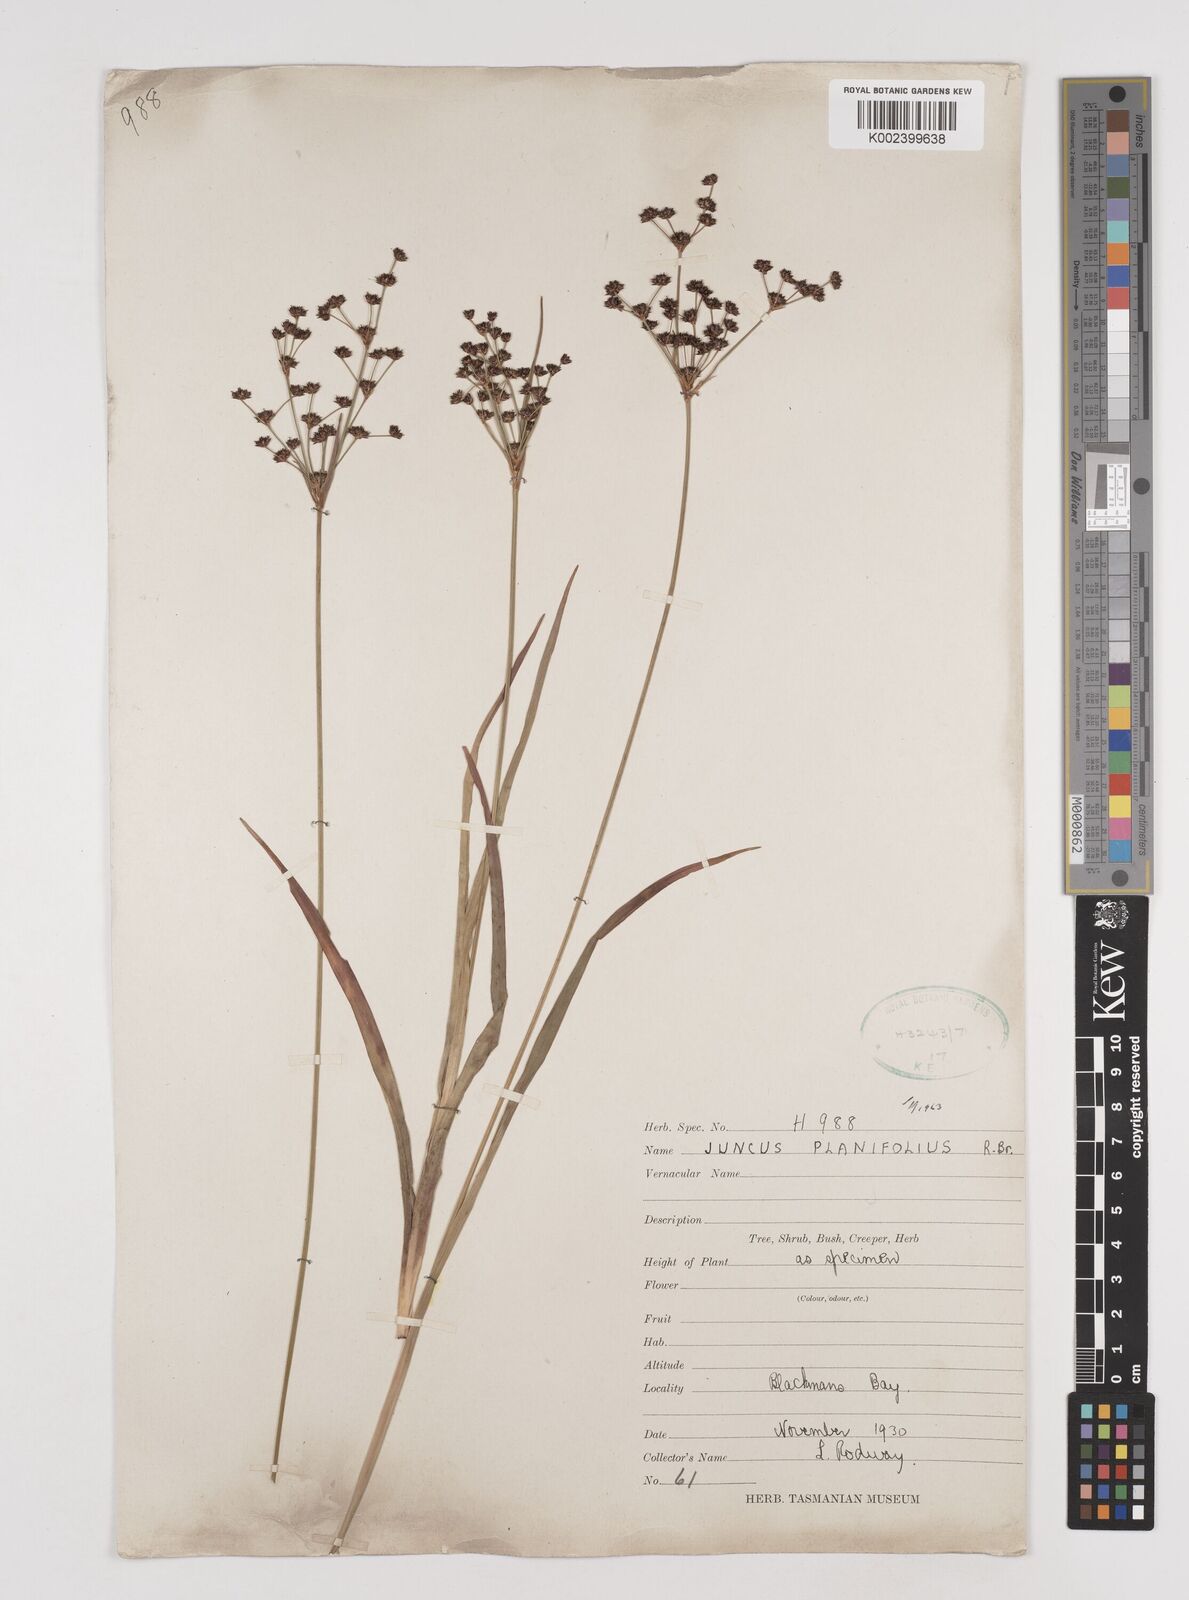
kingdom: Plantae
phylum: Tracheophyta
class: Liliopsida
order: Poales
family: Juncaceae
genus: Juncus
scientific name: Juncus planifolius
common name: Broadleaf rush
